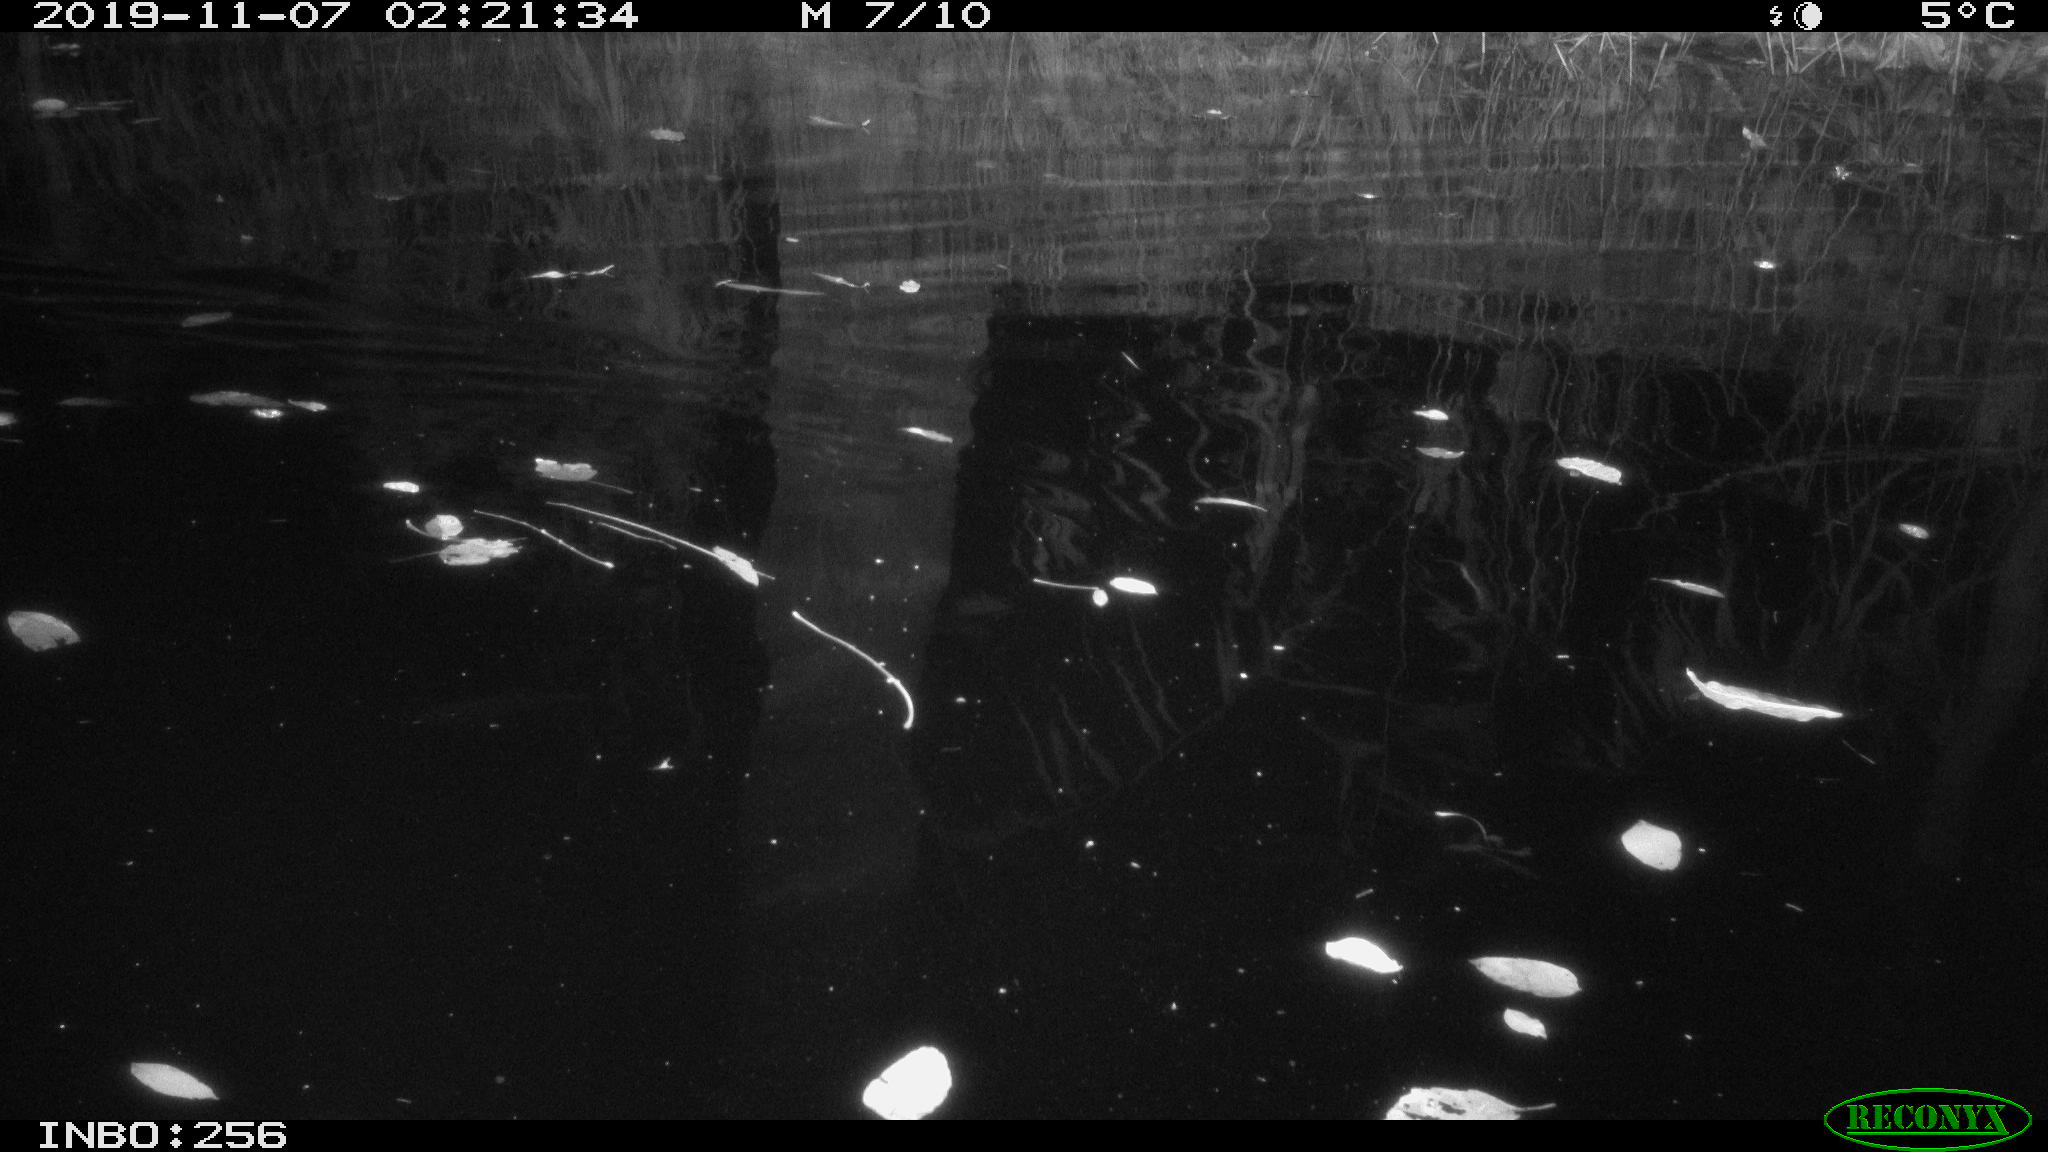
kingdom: Animalia
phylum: Chordata
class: Aves
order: Anseriformes
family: Anatidae
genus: Anas
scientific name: Anas platyrhynchos
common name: Mallard
